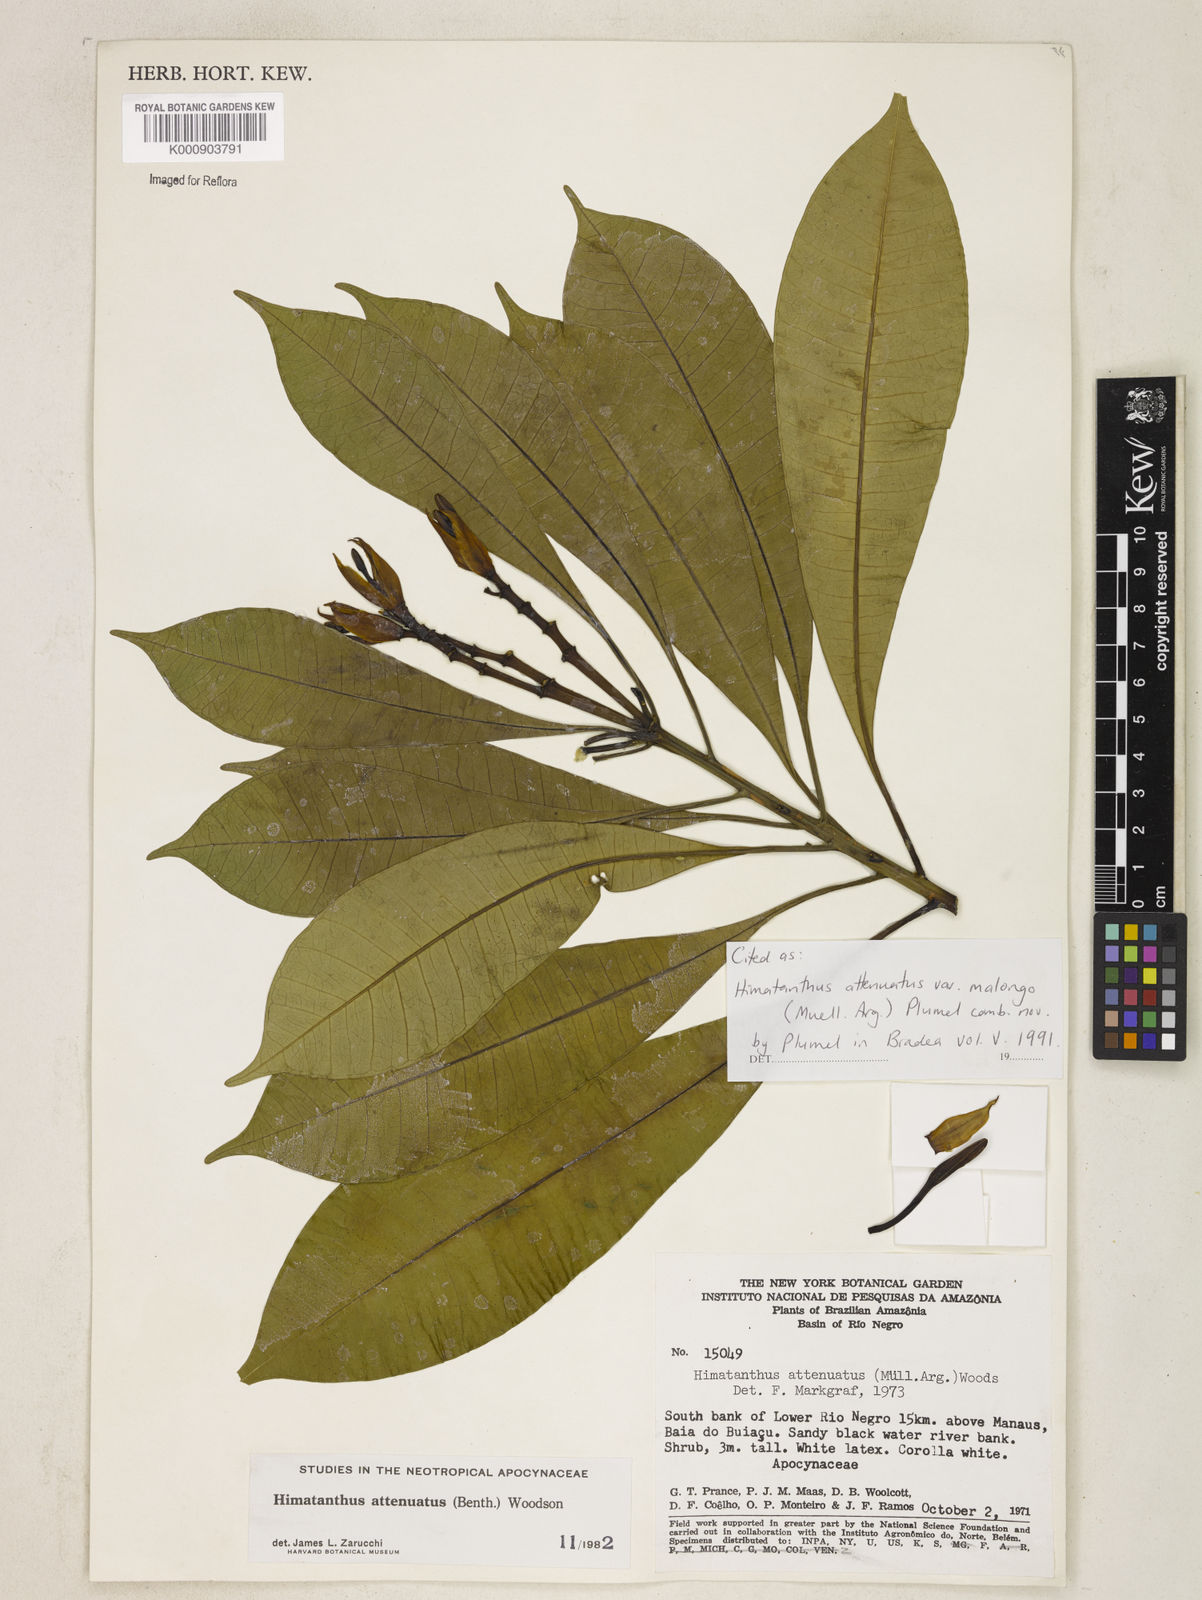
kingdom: Plantae
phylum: Tracheophyta
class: Magnoliopsida
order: Gentianales
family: Apocynaceae
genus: Himatanthus
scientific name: Himatanthus
